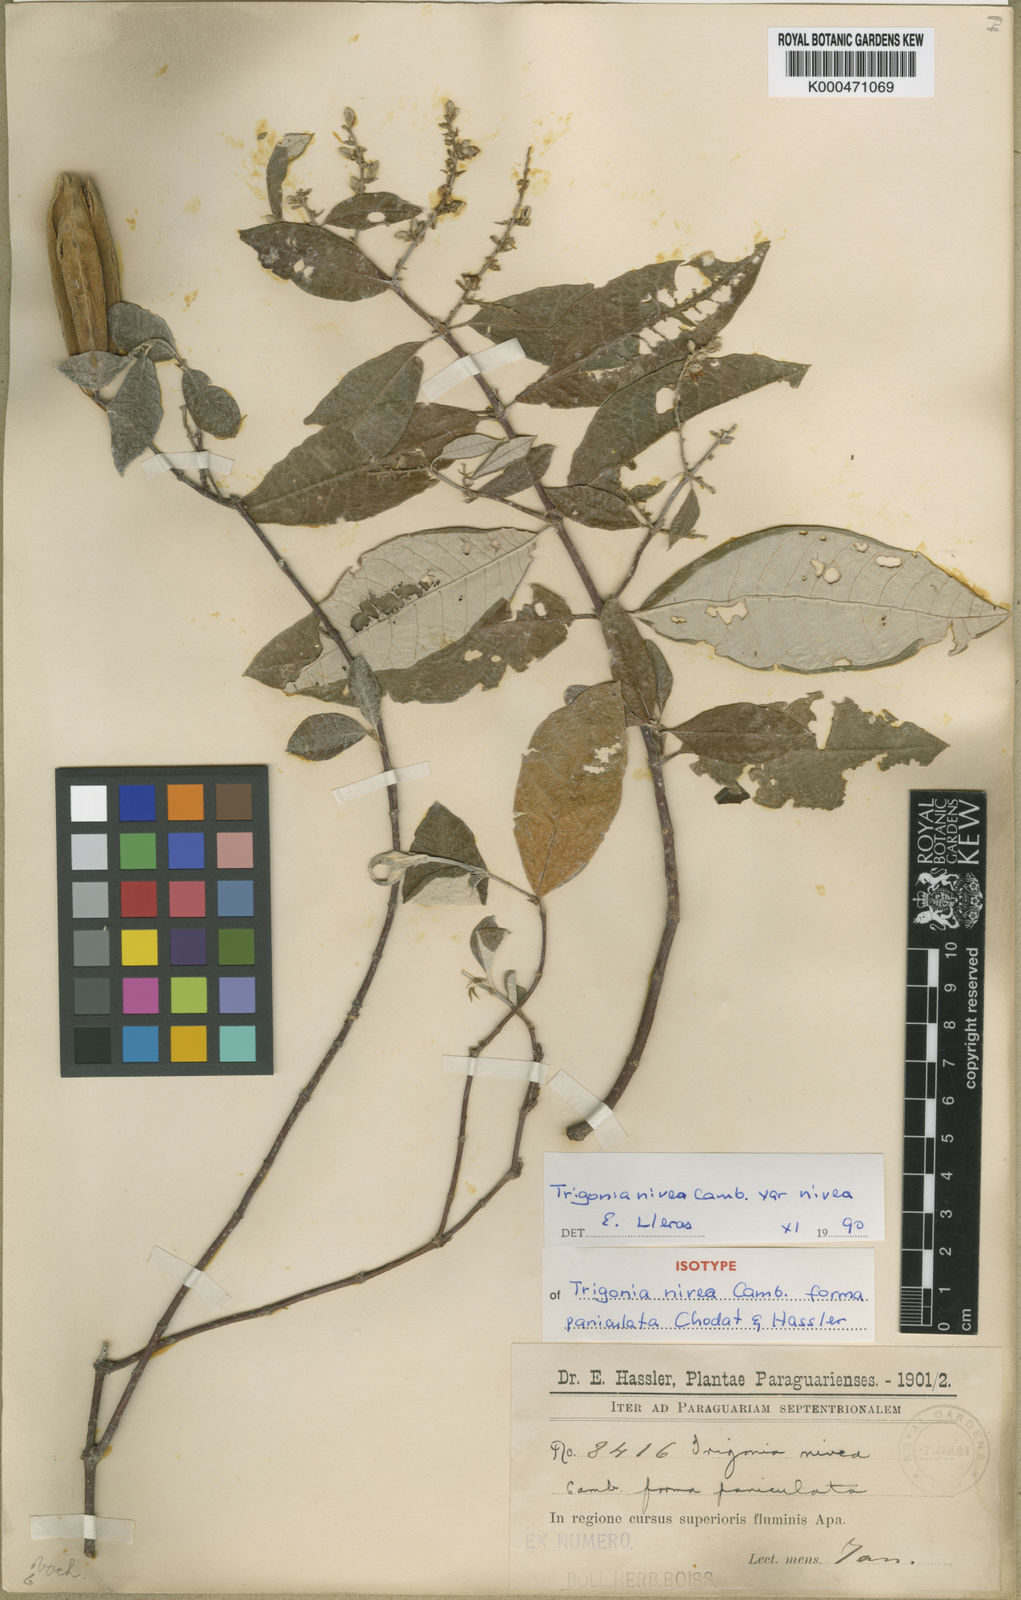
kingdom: Plantae
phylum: Tracheophyta
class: Magnoliopsida
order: Malpighiales
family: Trigoniaceae
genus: Trigonia
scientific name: Trigonia
